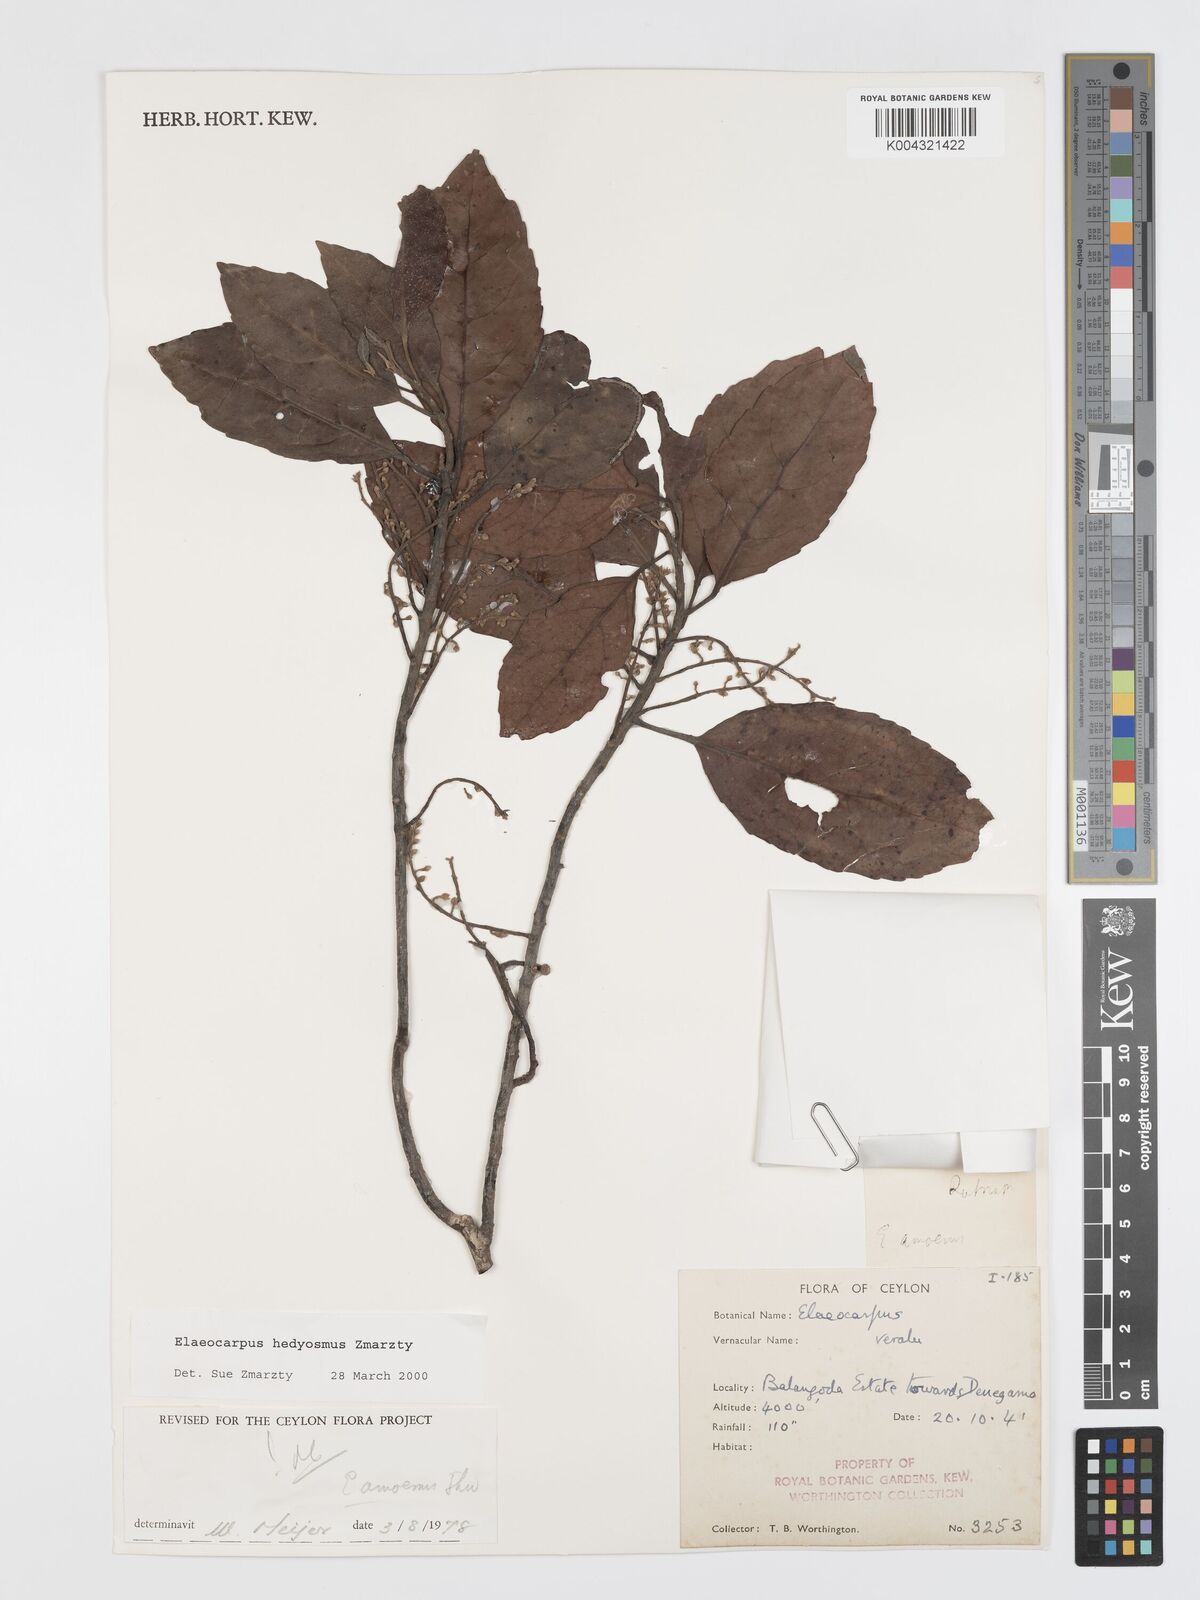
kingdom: Plantae
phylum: Tracheophyta
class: Magnoliopsida
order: Oxalidales
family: Elaeocarpaceae
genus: Elaeocarpus
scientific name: Elaeocarpus hedyosmus
